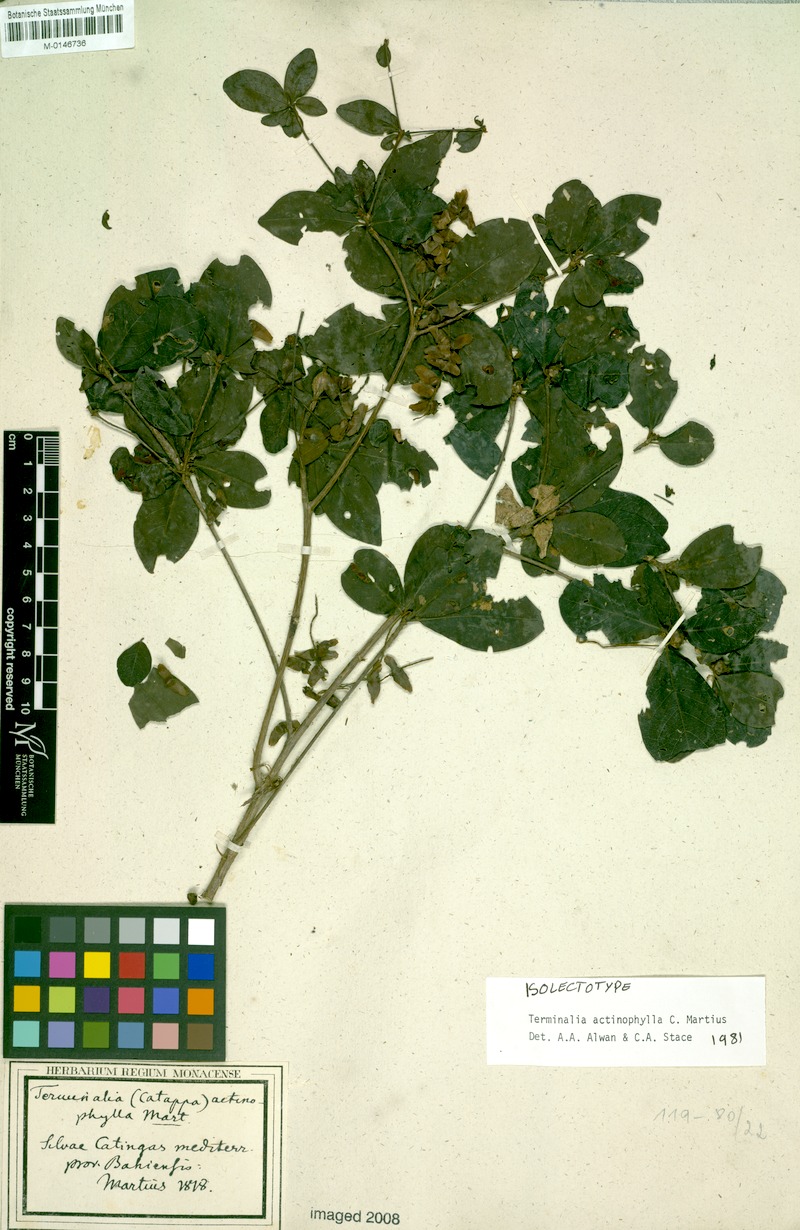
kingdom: Plantae
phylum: Tracheophyta
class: Magnoliopsida
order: Myrtales
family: Combretaceae
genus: Terminalia
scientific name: Terminalia actinophylla
